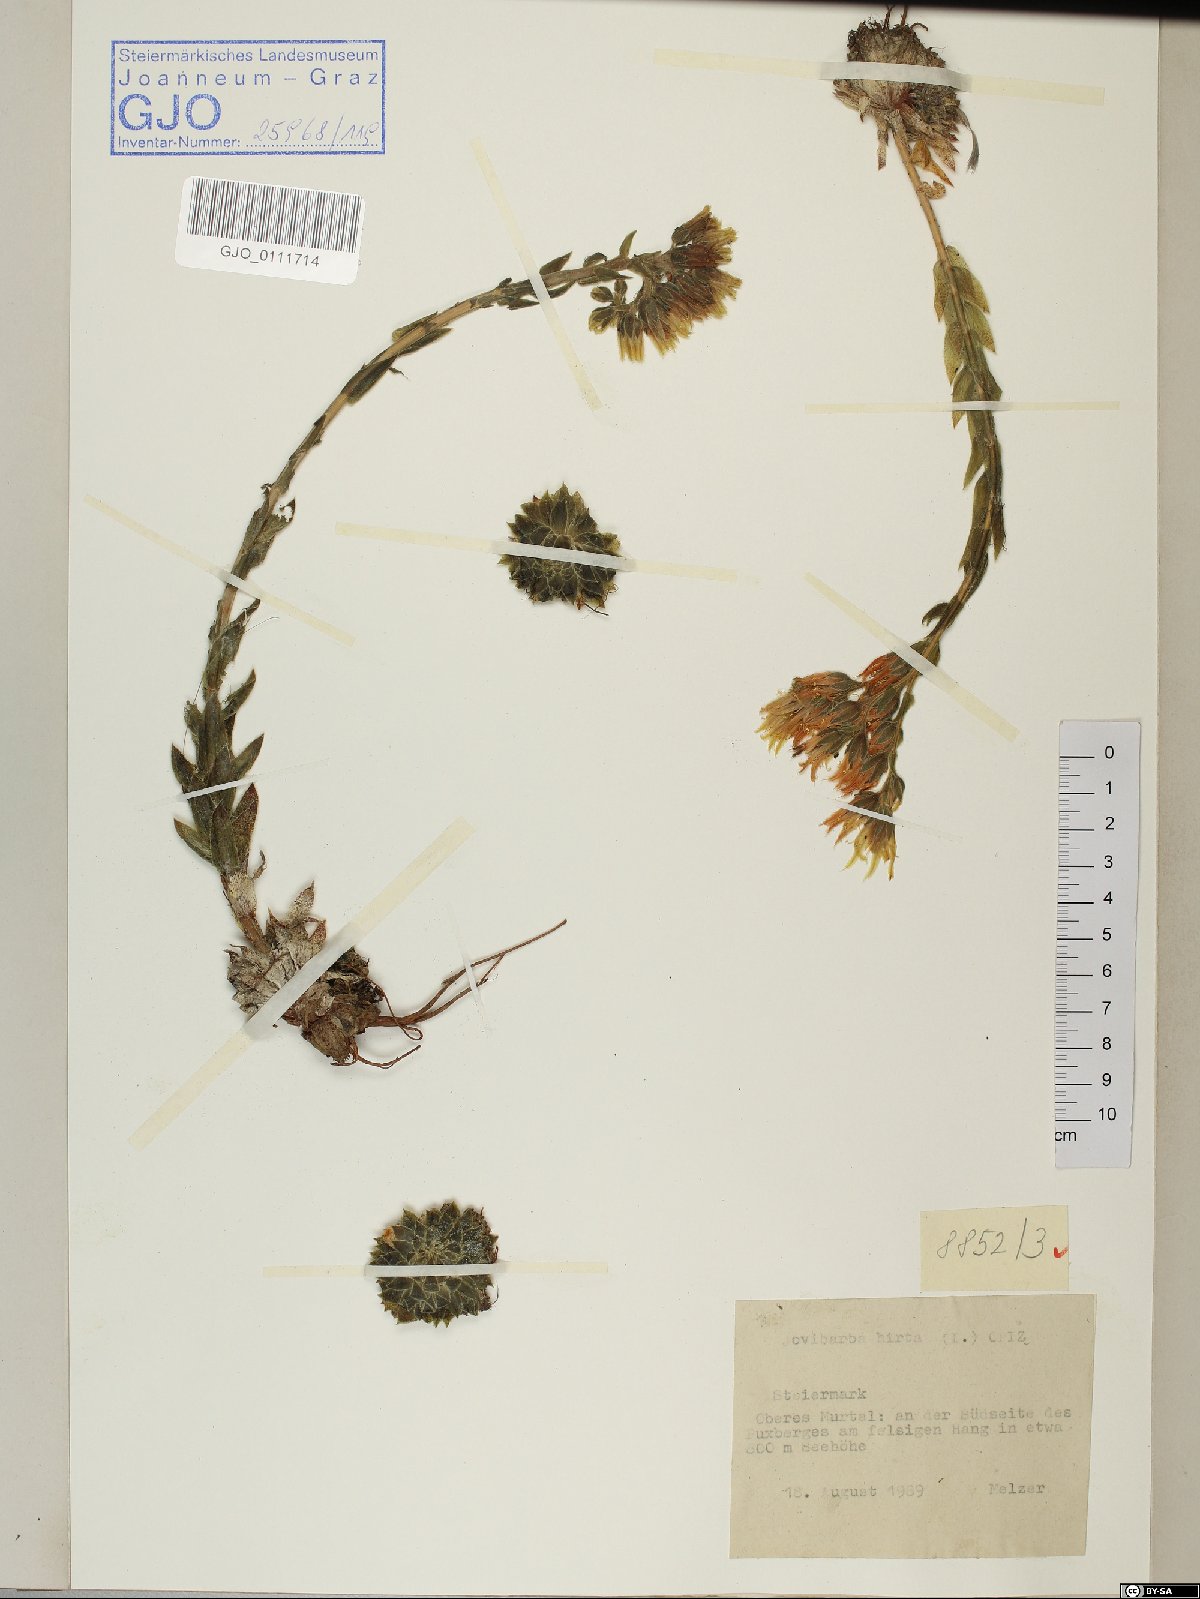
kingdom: Plantae
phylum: Tracheophyta
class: Magnoliopsida
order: Saxifragales
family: Crassulaceae
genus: Sempervivum
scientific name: Sempervivum globiferum
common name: Rolling hen-and-chicks
